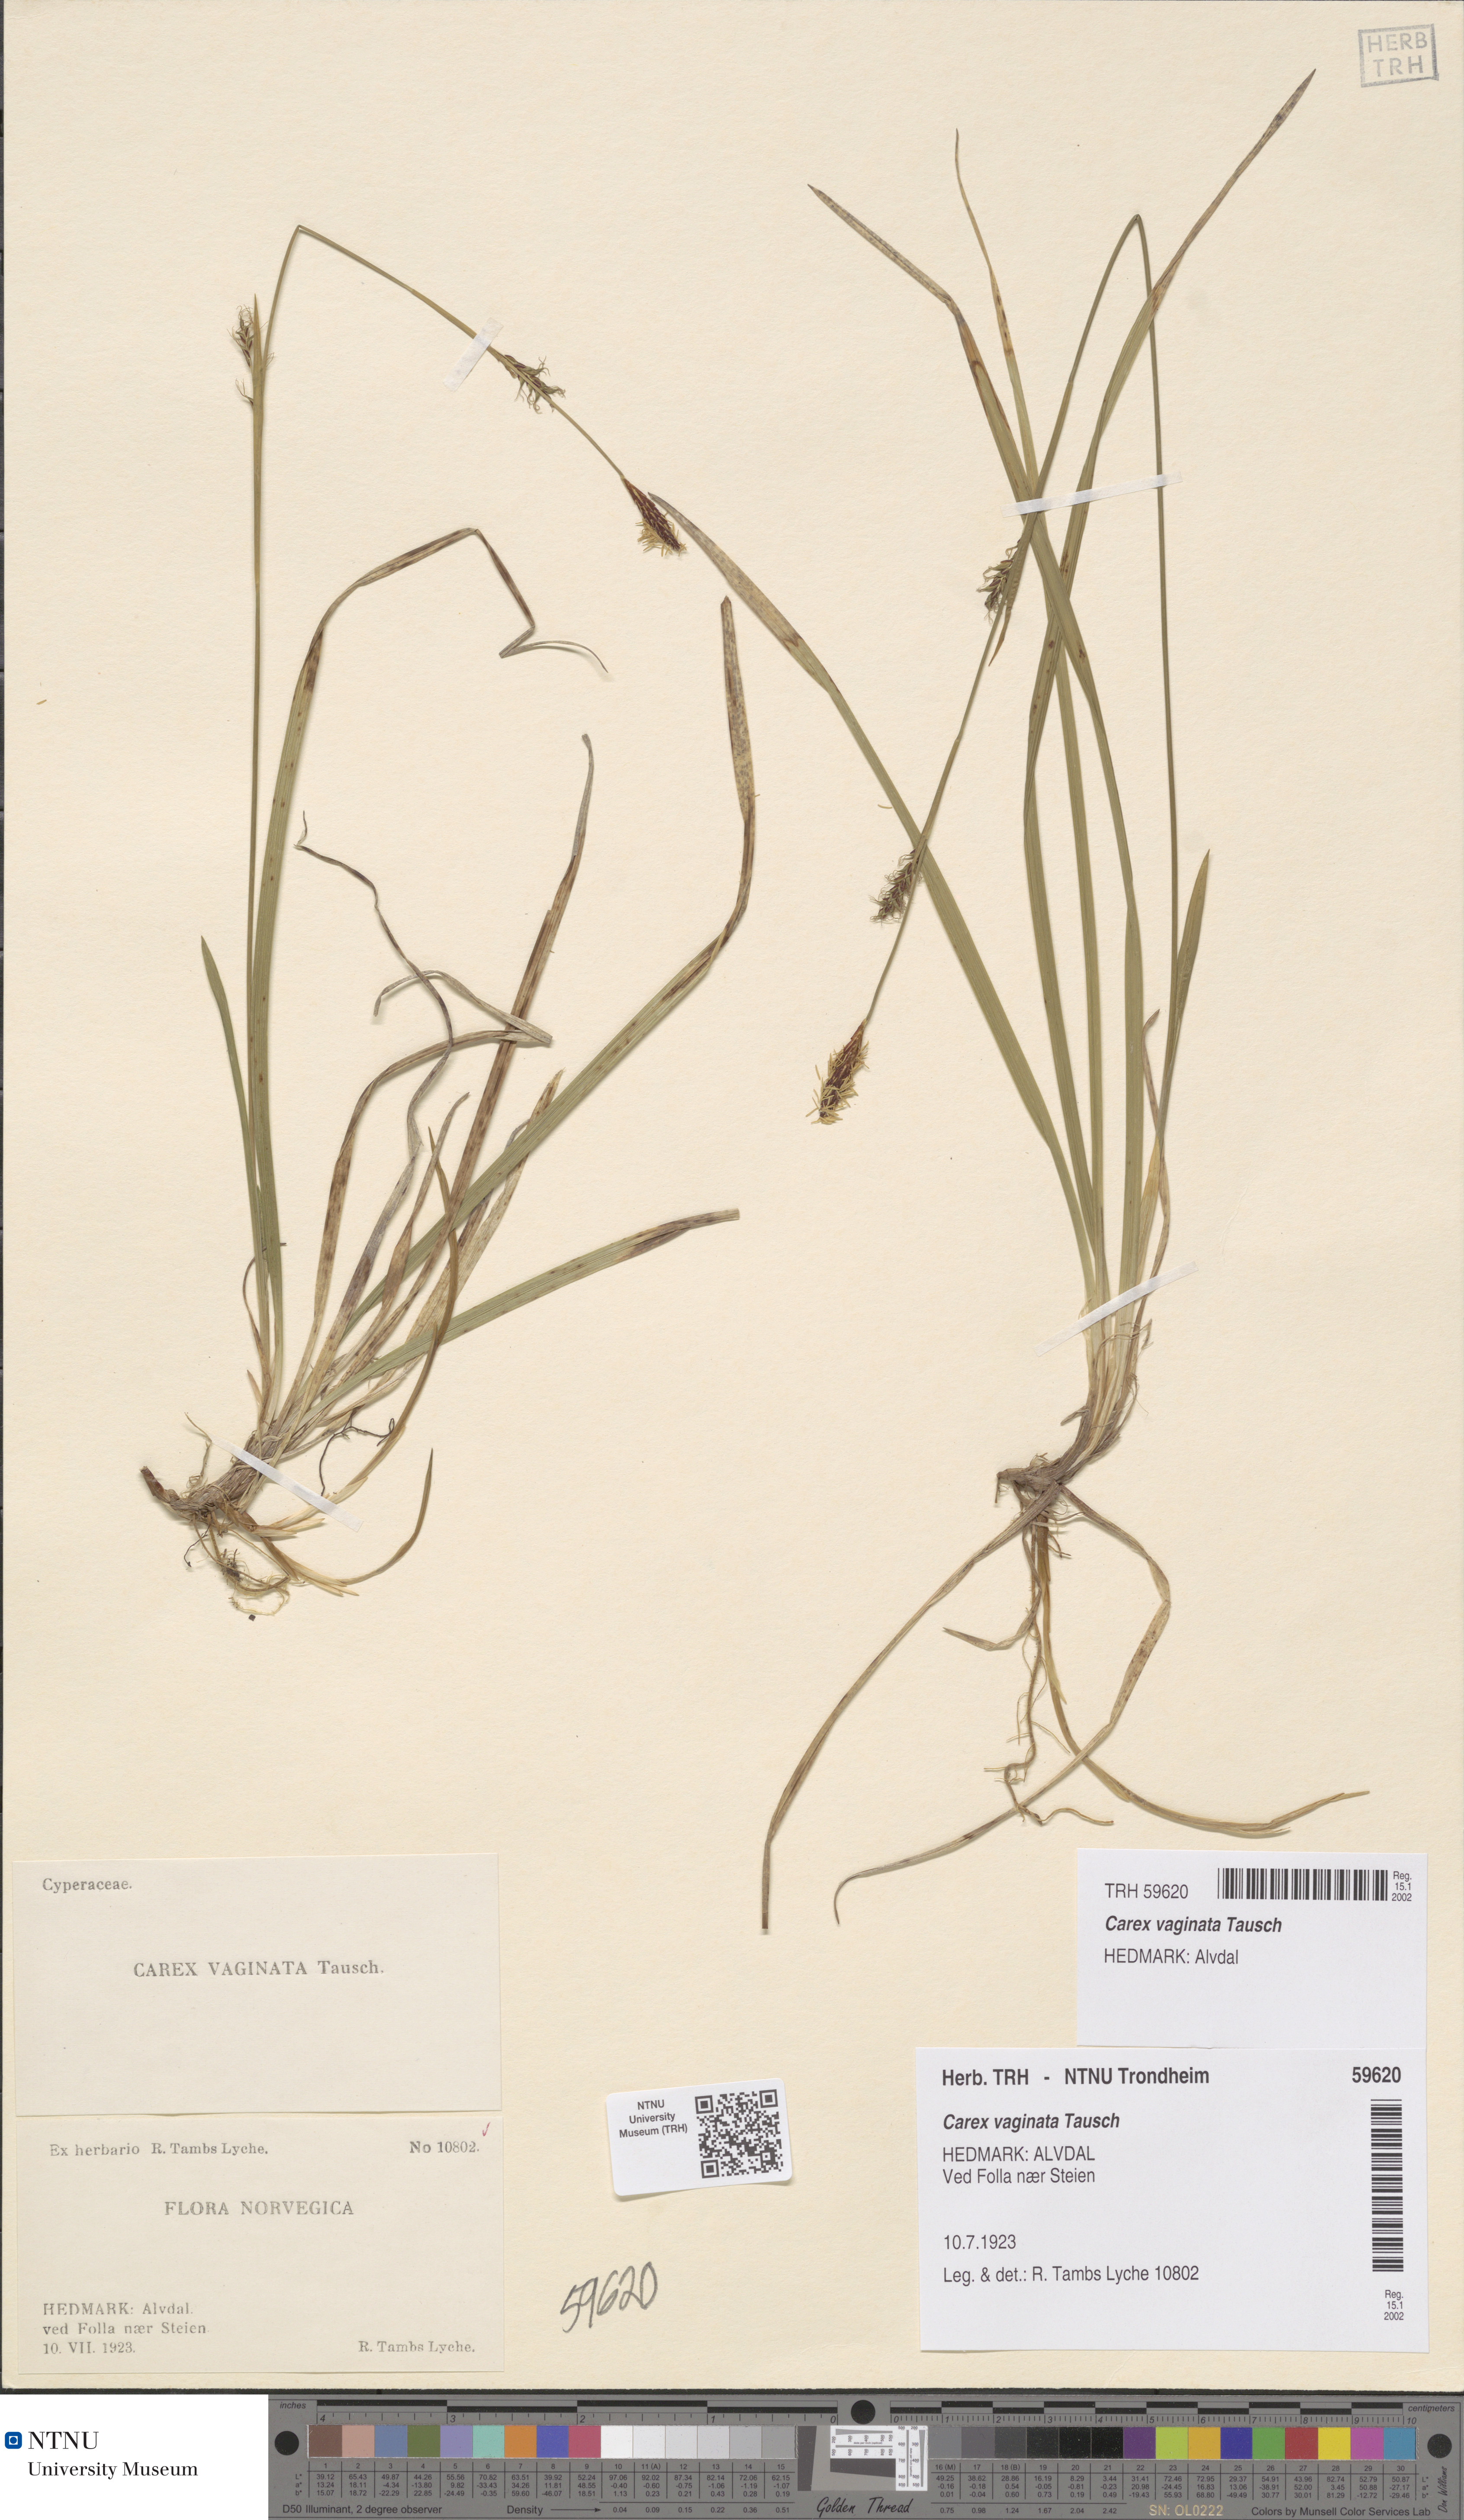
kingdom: Plantae
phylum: Tracheophyta
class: Liliopsida
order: Poales
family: Cyperaceae
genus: Carex
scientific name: Carex vaginata
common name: Sheathed sedge
